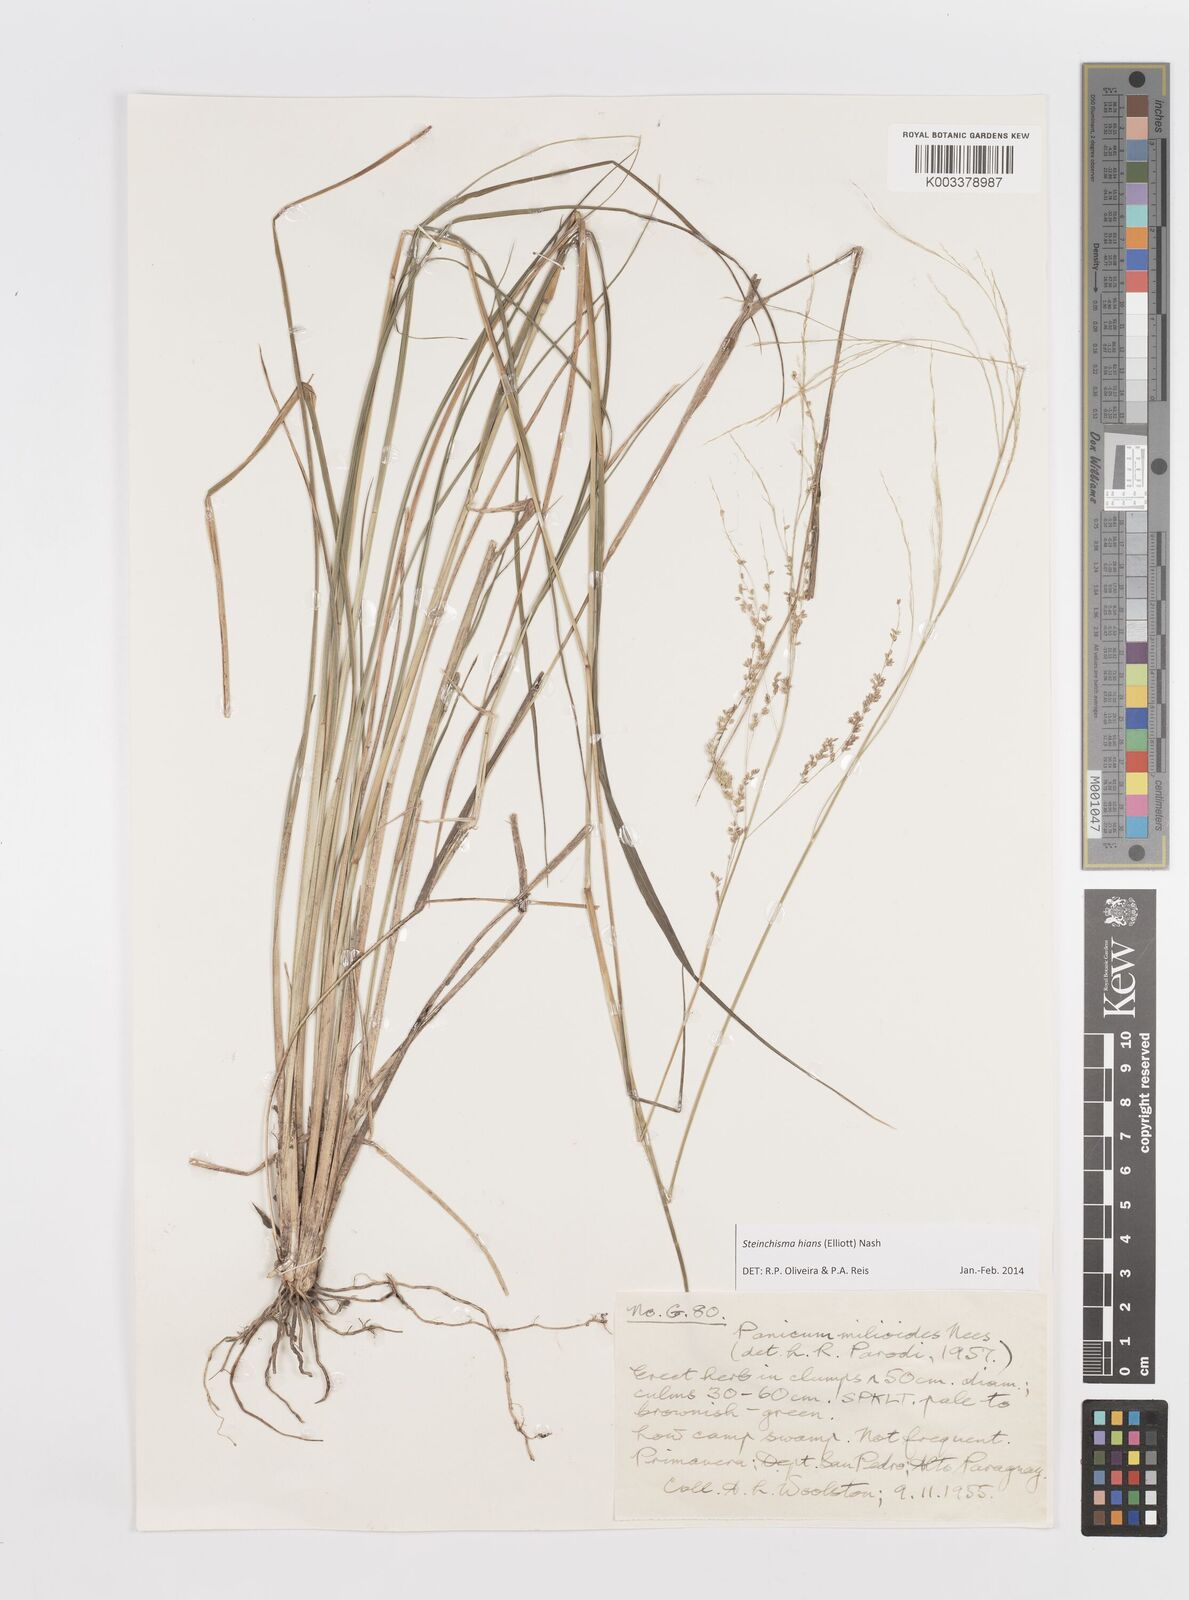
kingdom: Plantae
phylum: Tracheophyta
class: Liliopsida
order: Poales
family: Poaceae
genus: Steinchisma
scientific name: Steinchisma hians
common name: Gaping panic grass
